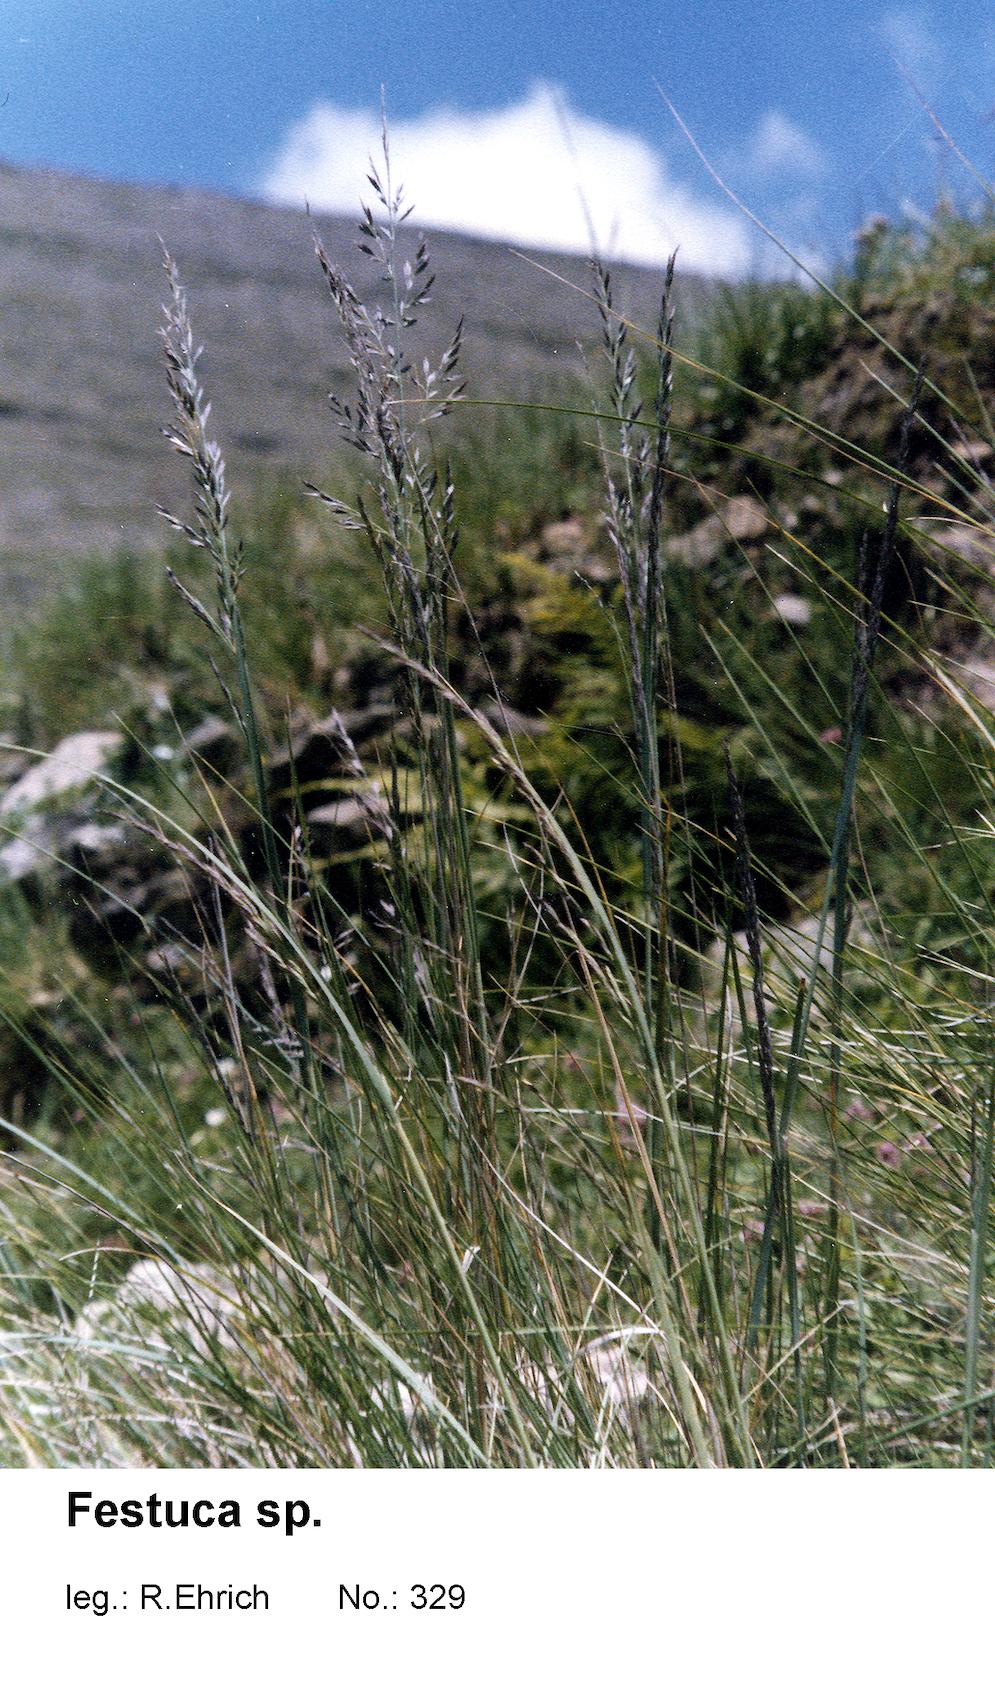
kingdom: Plantae
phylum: Tracheophyta
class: Liliopsida
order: Poales
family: Poaceae
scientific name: Poaceae
